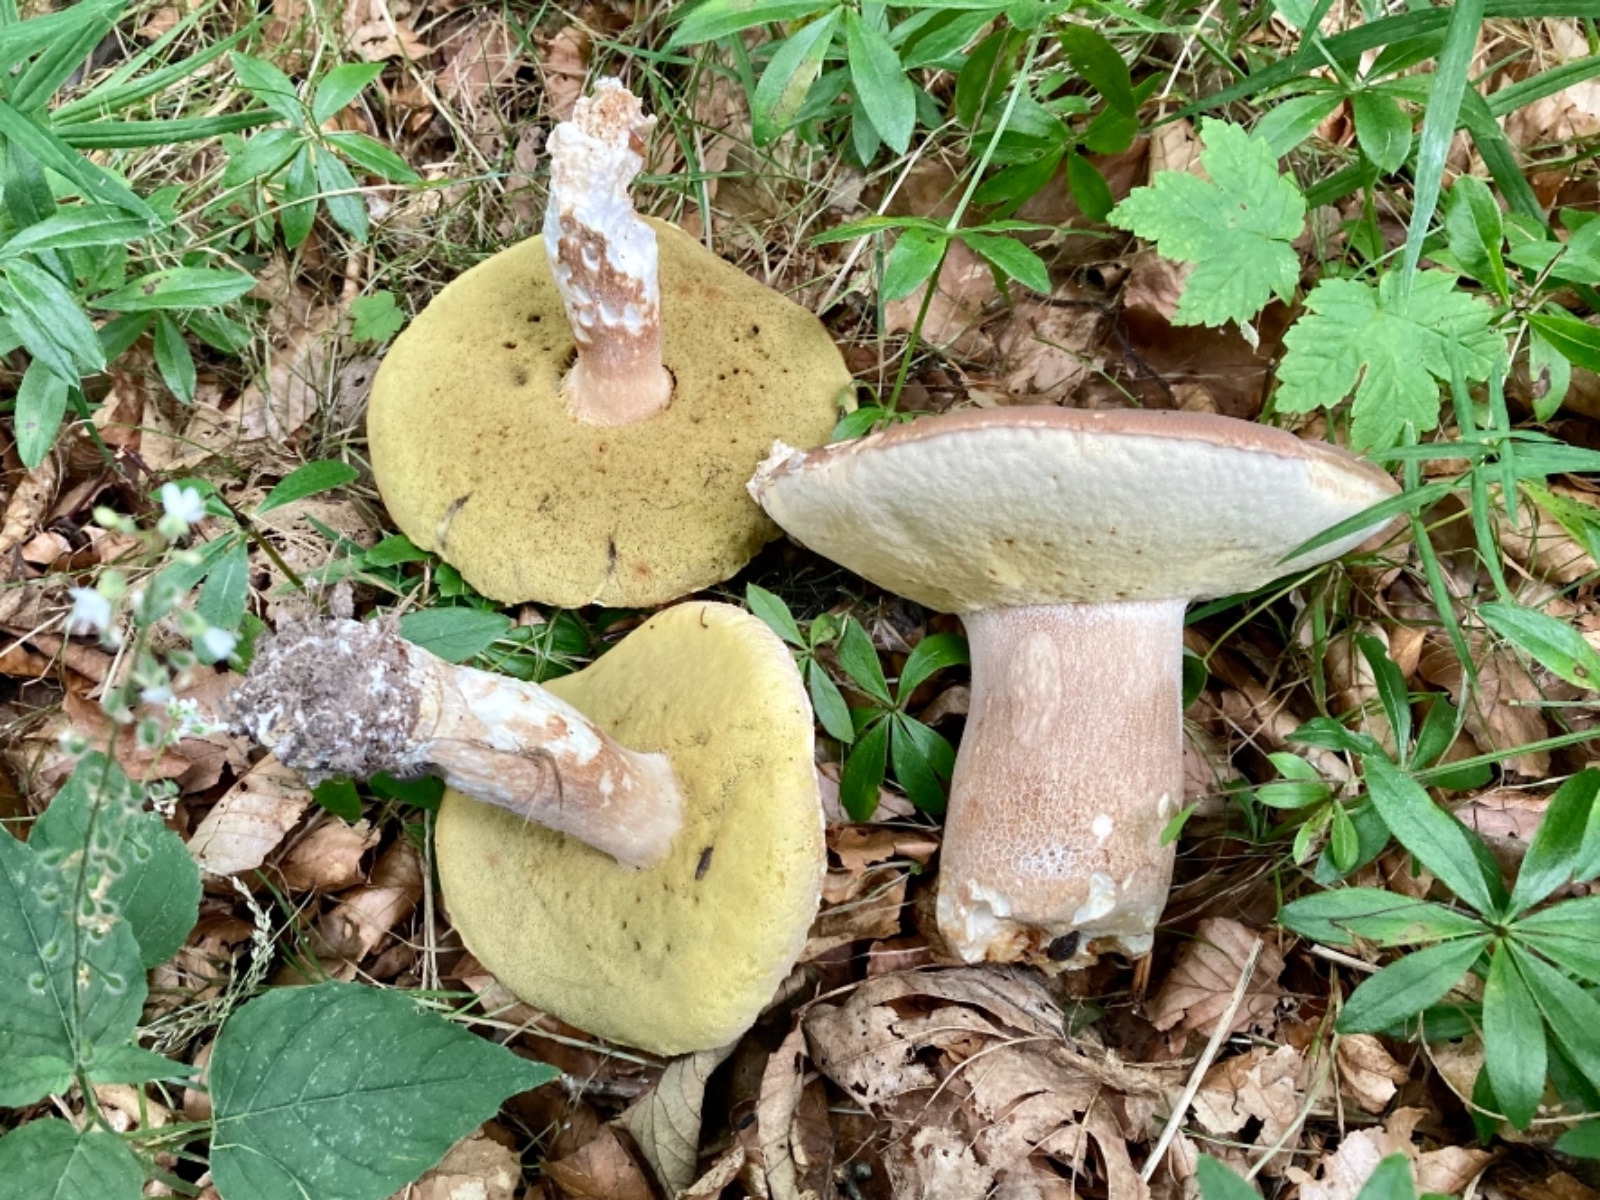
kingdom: Fungi
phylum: Basidiomycota
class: Agaricomycetes
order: Boletales
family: Boletaceae
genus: Boletus
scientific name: Boletus edulis
